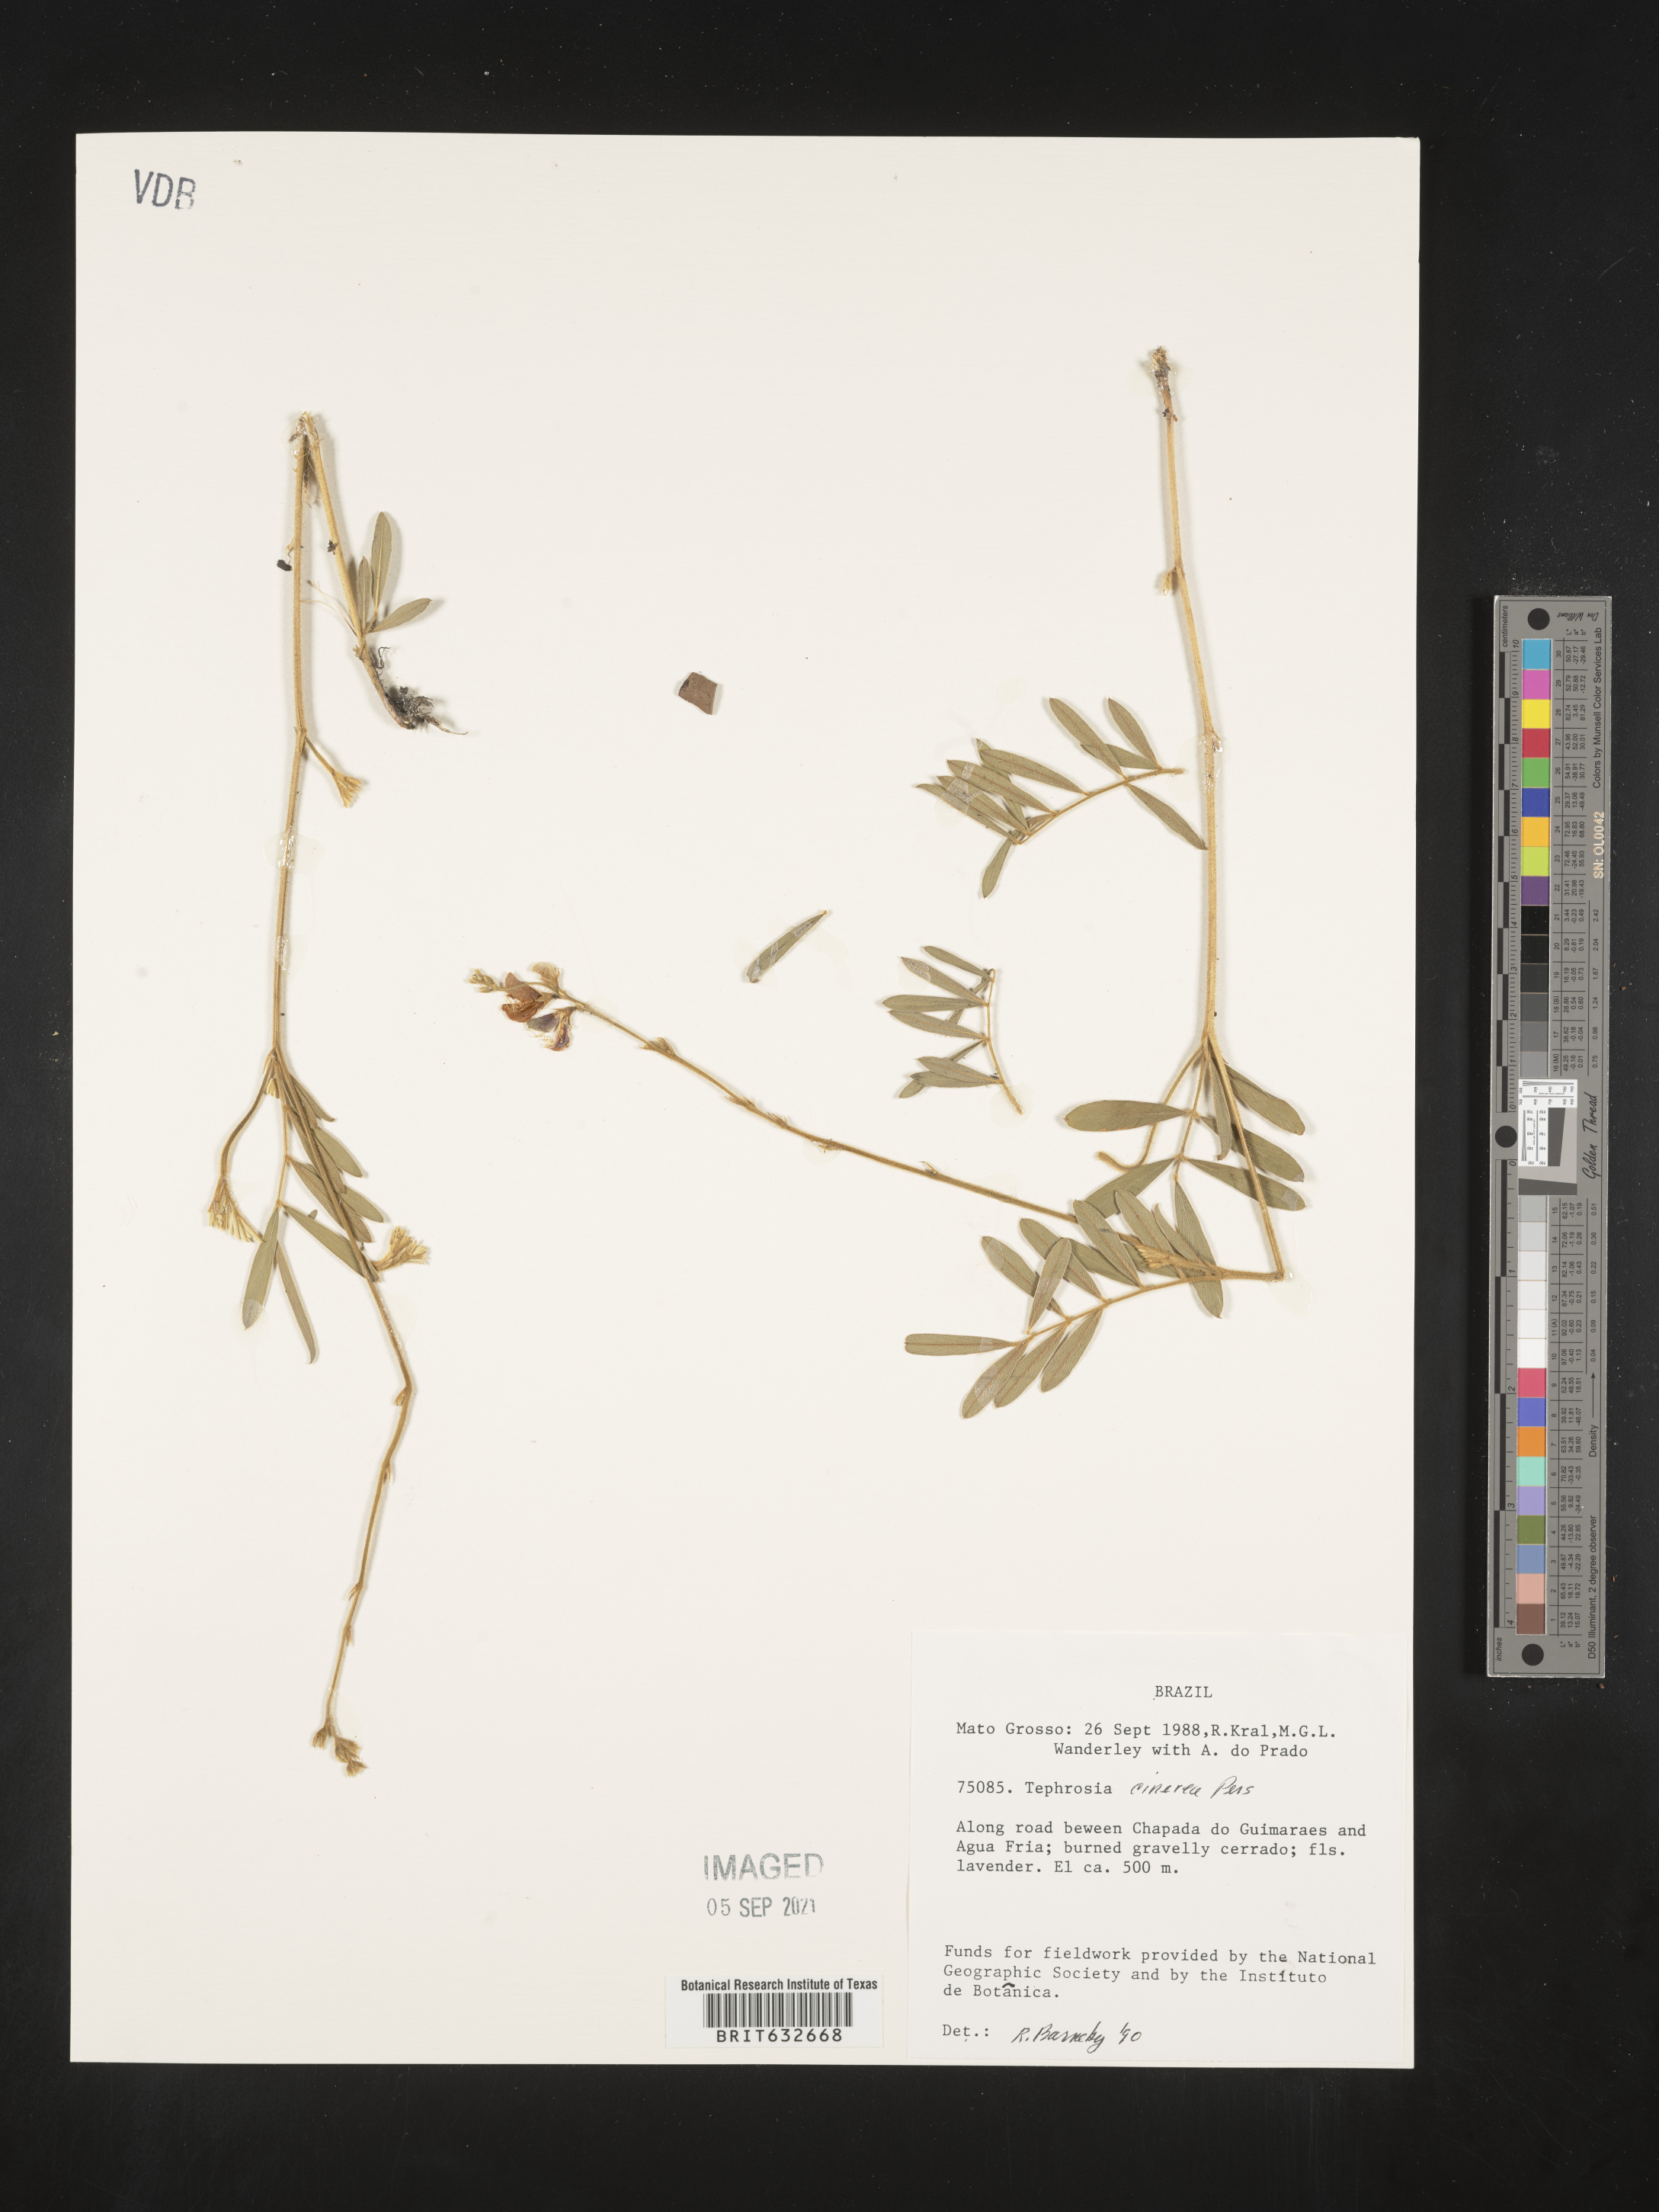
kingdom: Plantae
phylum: Tracheophyta
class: Magnoliopsida
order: Fabales
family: Fabaceae
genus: Tephrosia
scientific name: Tephrosia
